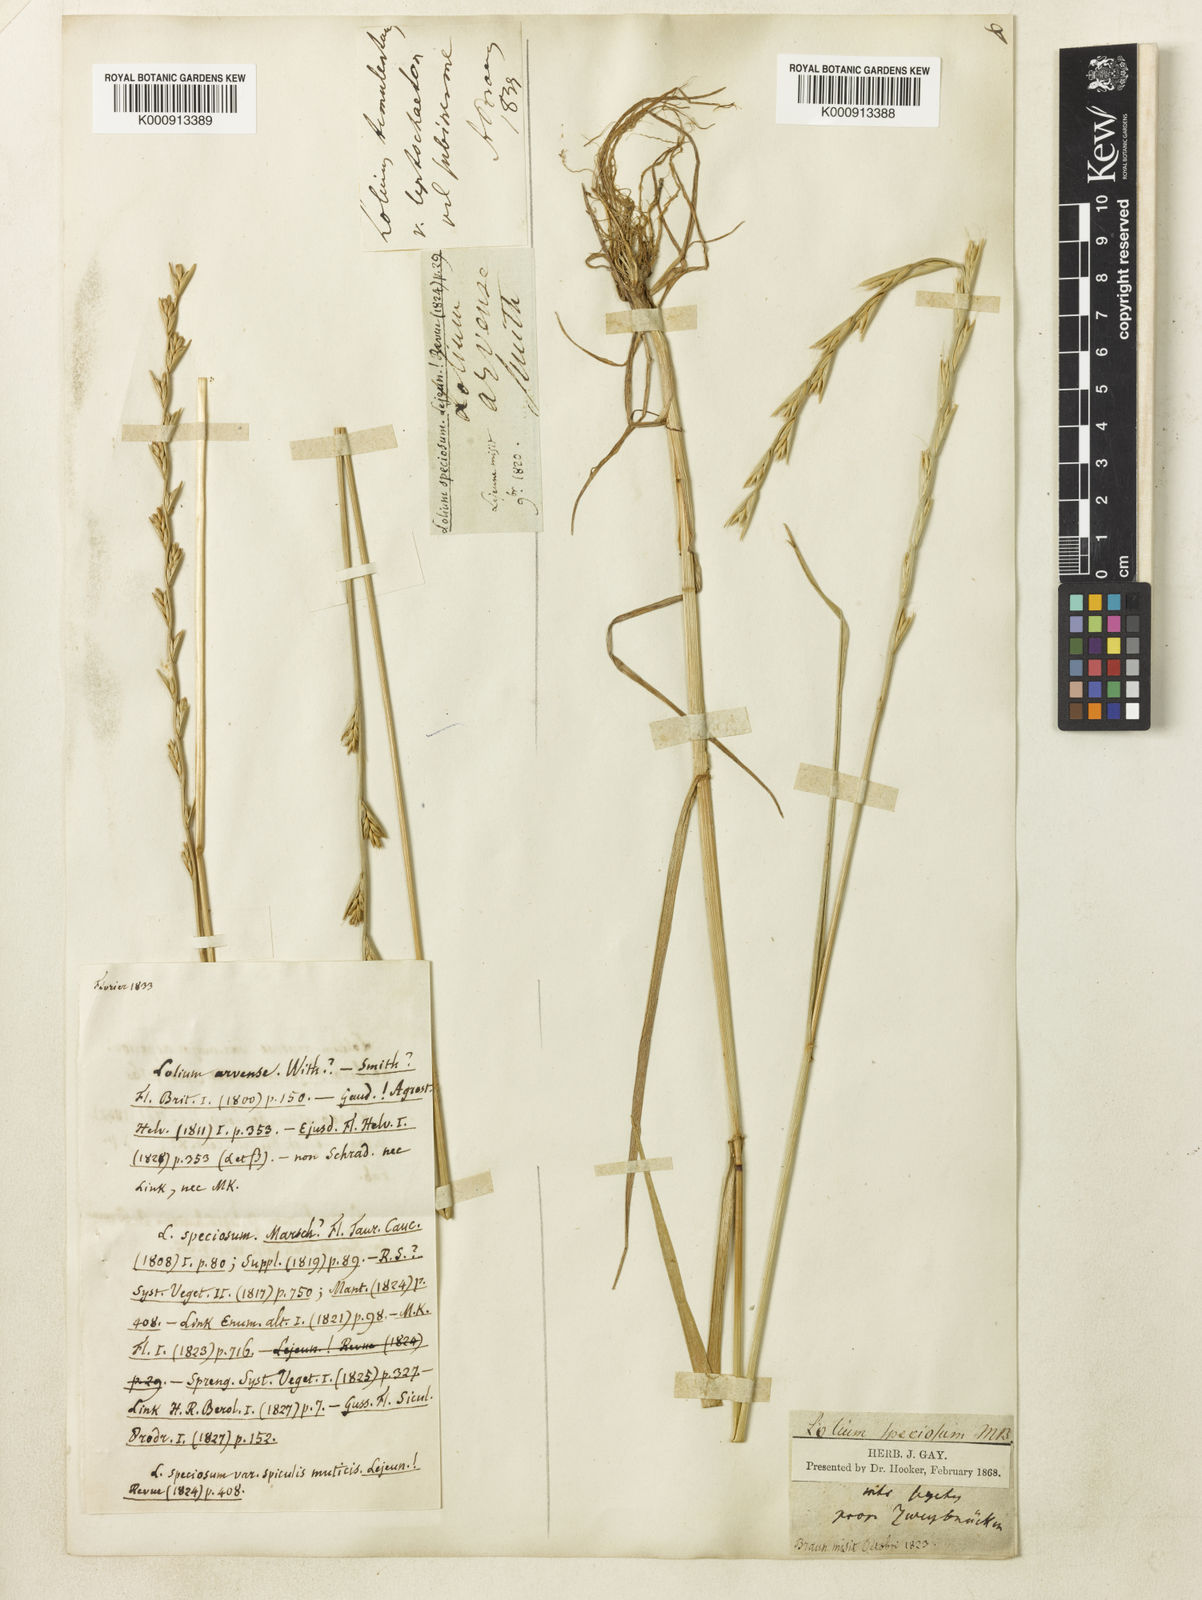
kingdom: Plantae
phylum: Tracheophyta
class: Liliopsida
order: Poales
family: Poaceae
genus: Lolium
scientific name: Lolium temulentum
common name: Darnel
